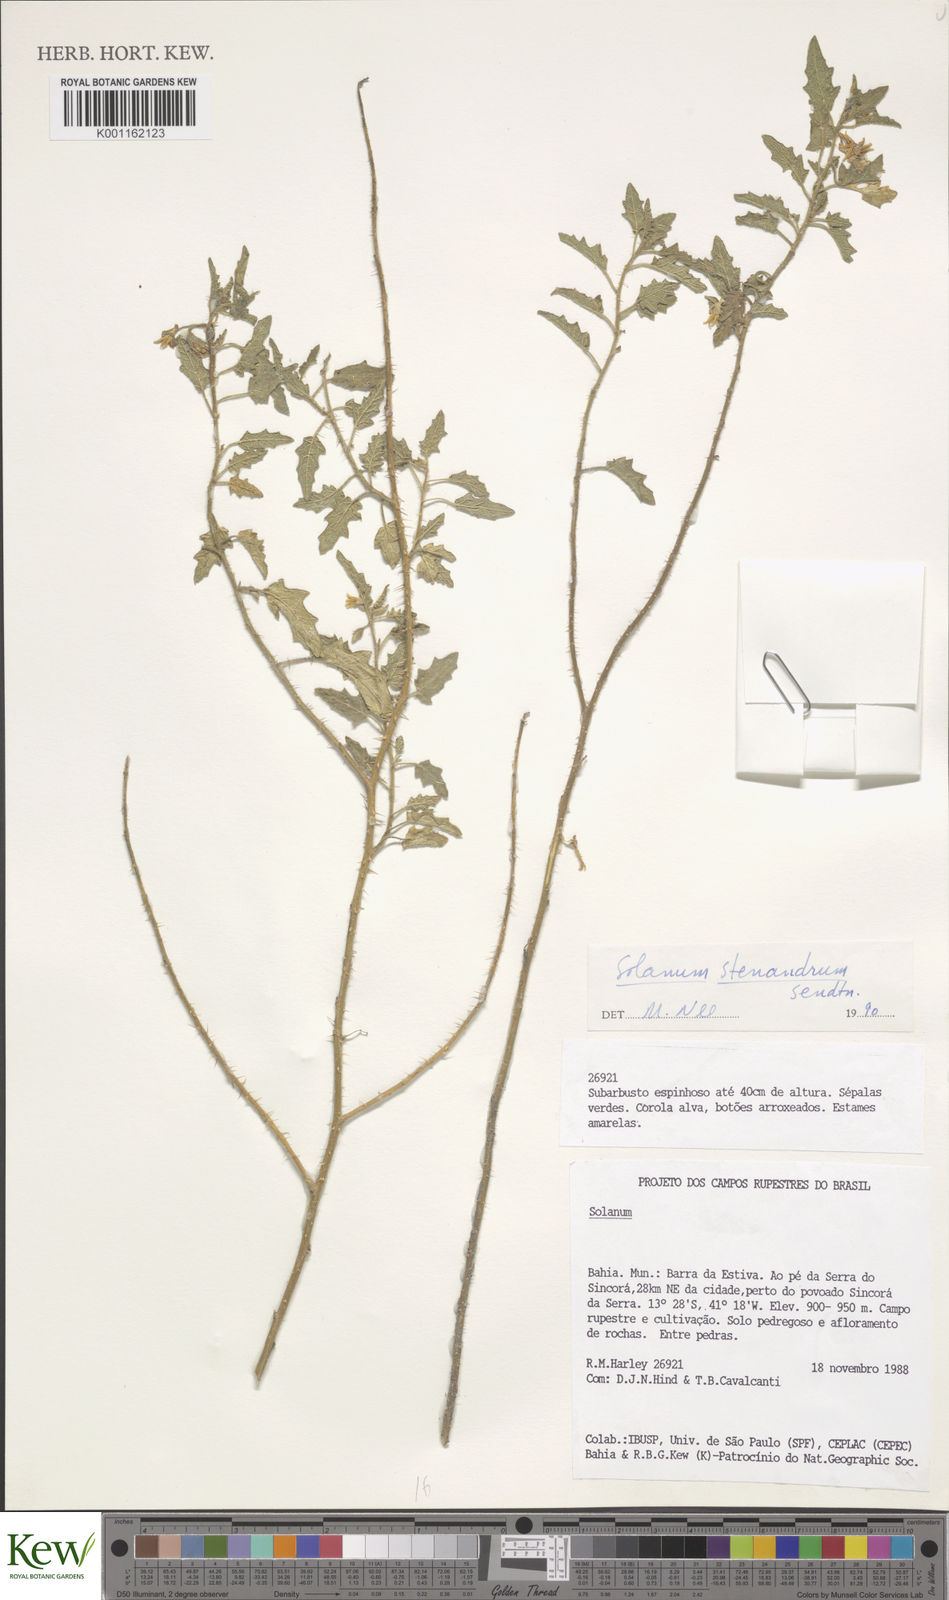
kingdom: Plantae
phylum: Tracheophyta
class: Magnoliopsida
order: Solanales
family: Solanaceae
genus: Solanum
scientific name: Solanum stenandrum
